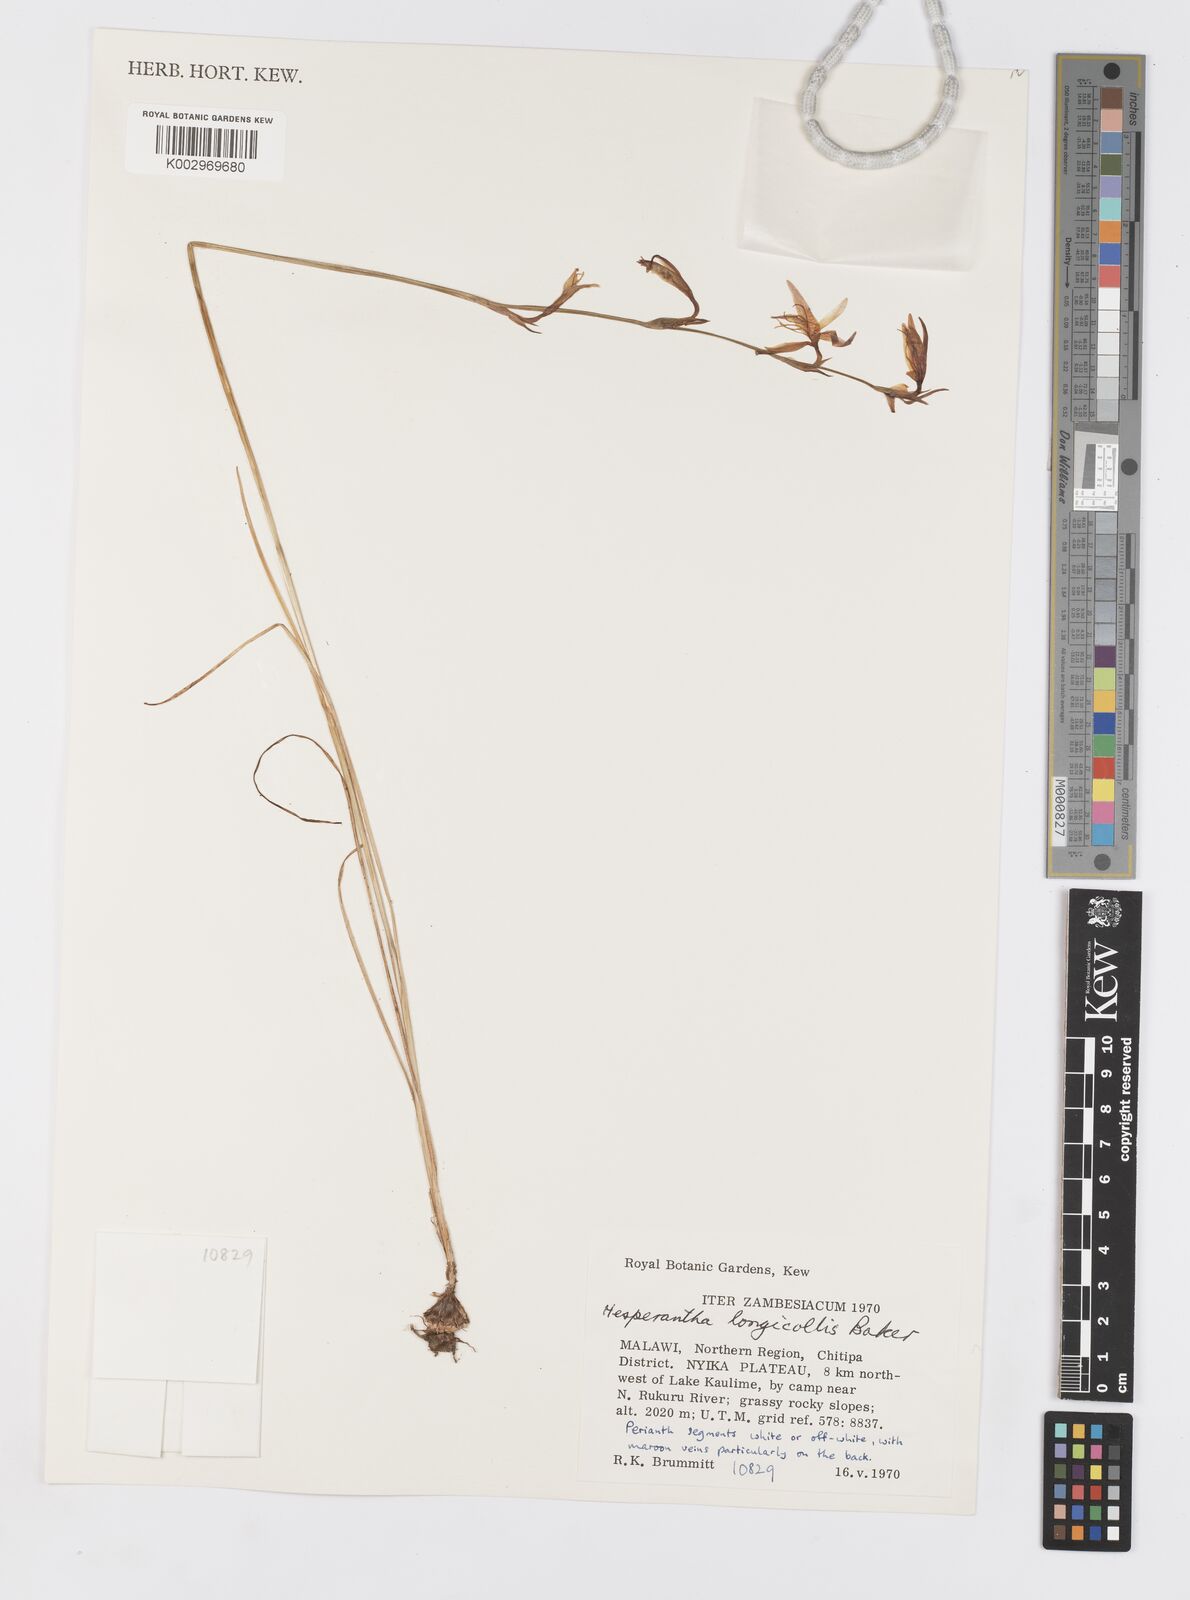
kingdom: Plantae
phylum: Tracheophyta
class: Liliopsida
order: Asparagales
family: Iridaceae
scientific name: Iridaceae
